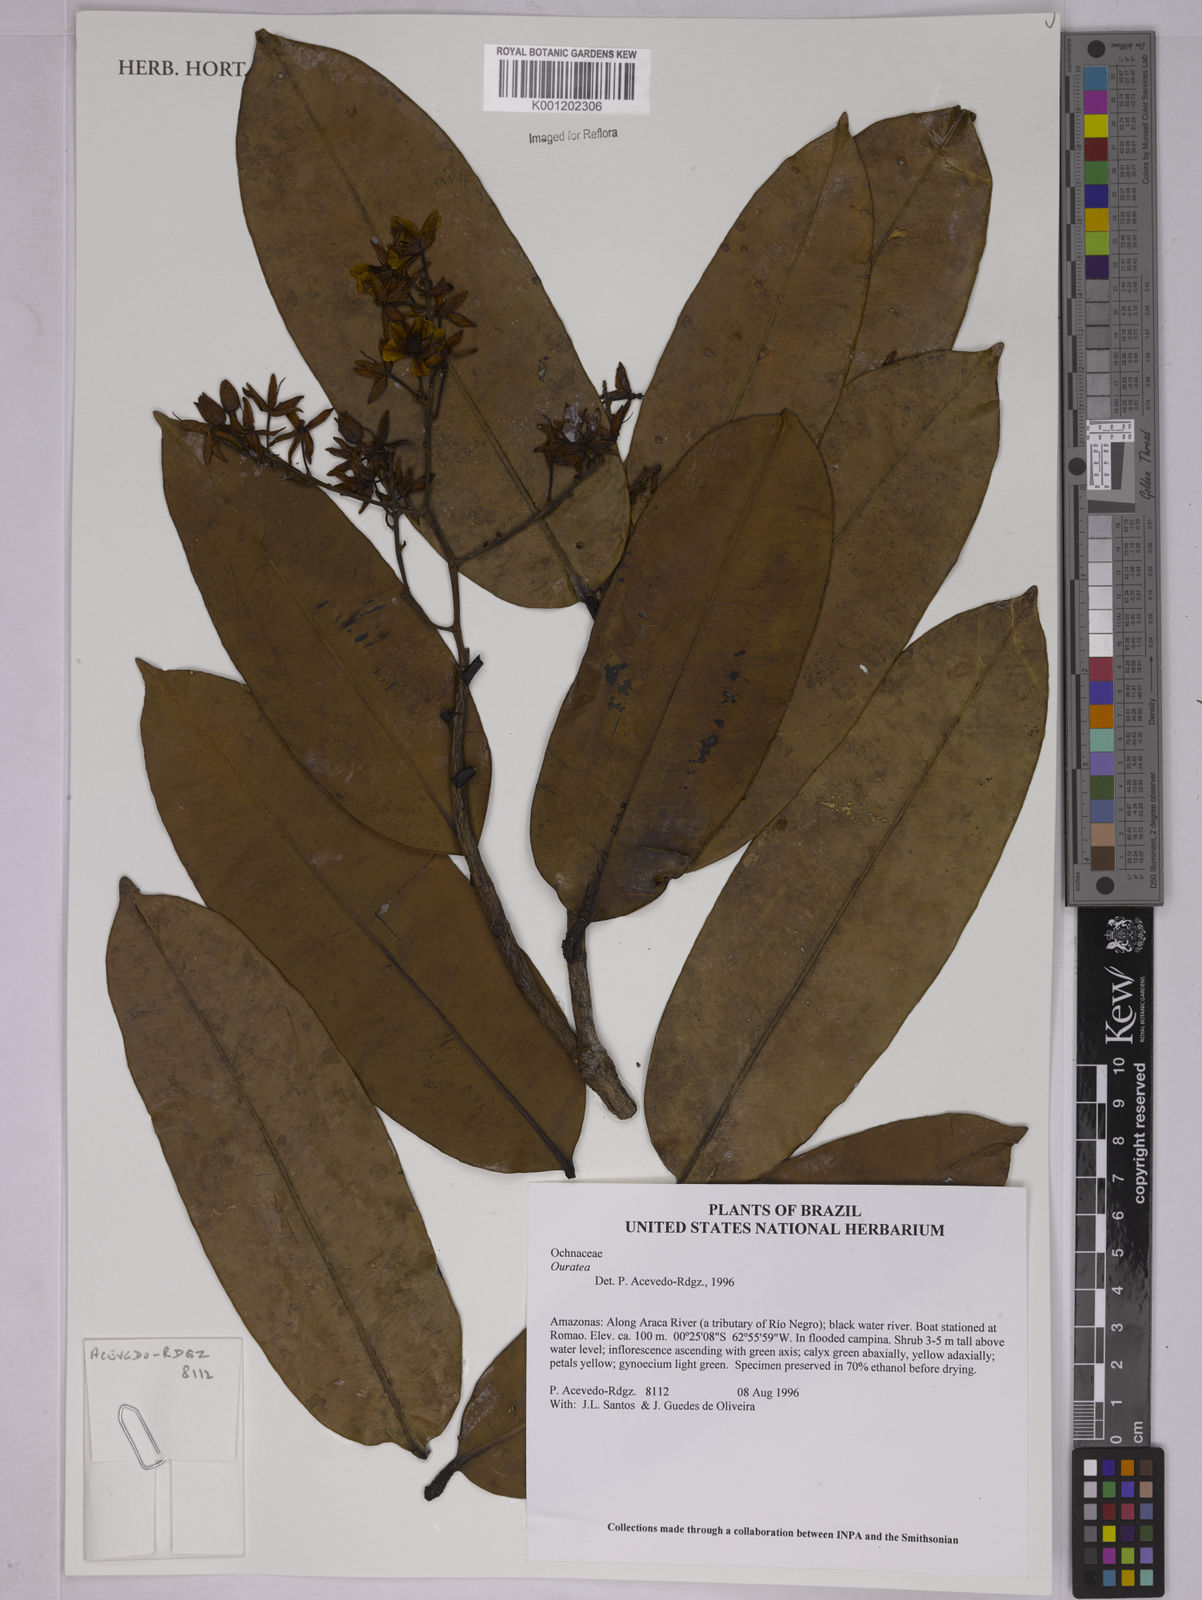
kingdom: Plantae
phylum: Tracheophyta
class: Magnoliopsida
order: Malpighiales
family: Ochnaceae
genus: Ouratea
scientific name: Ouratea
